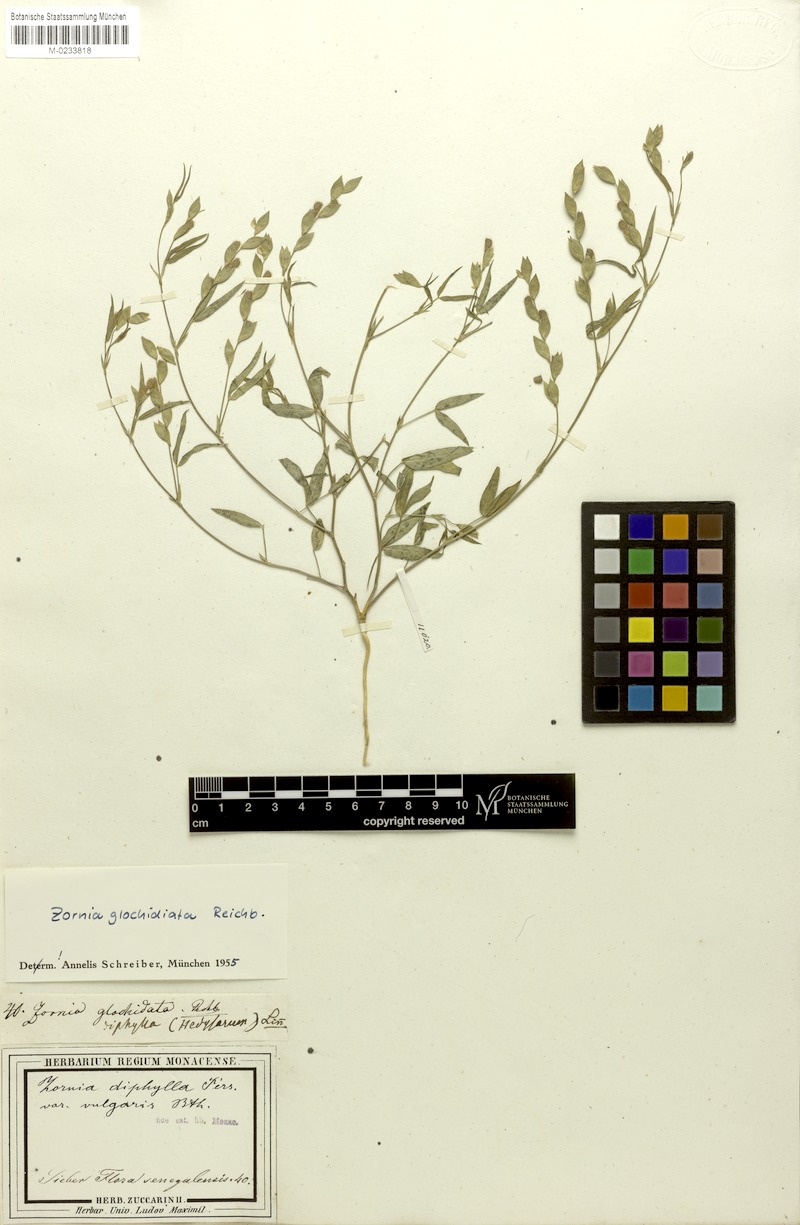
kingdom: Plantae
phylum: Tracheophyta
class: Magnoliopsida
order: Fabales
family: Fabaceae
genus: Zornia
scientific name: Zornia glochidiata
